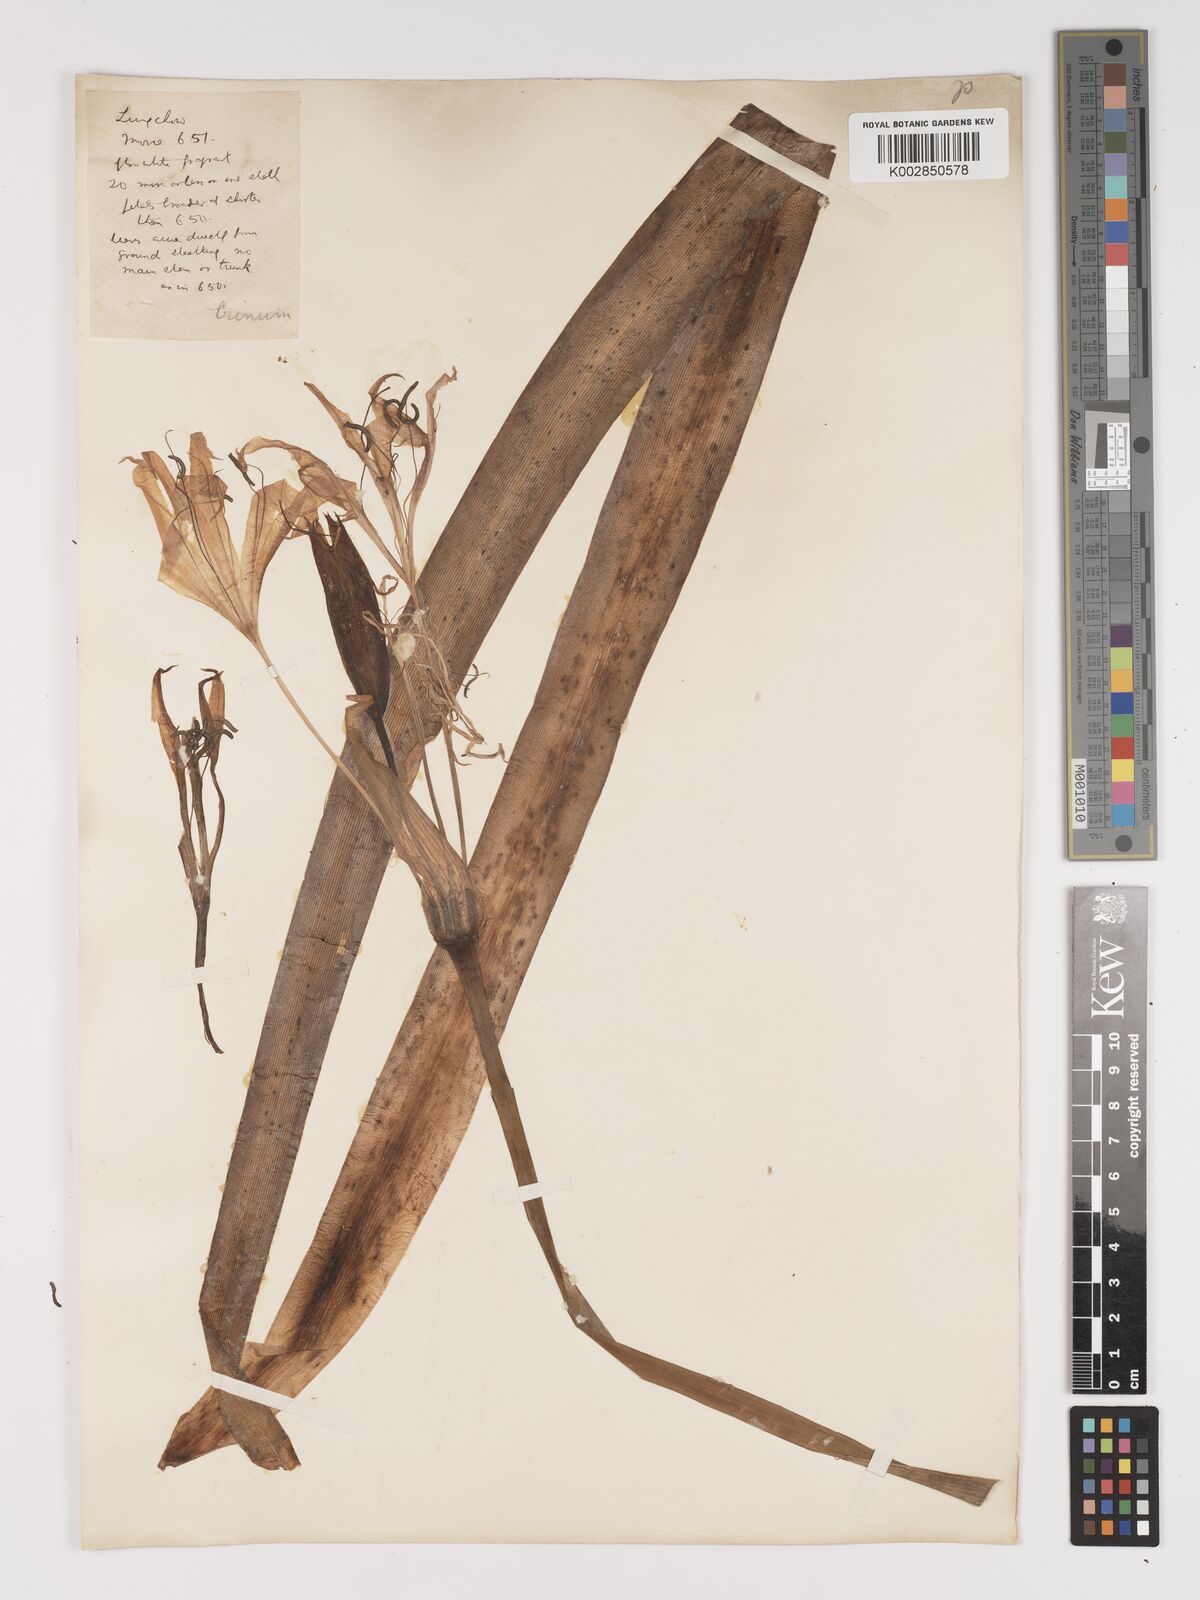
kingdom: Plantae
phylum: Tracheophyta
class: Liliopsida
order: Asparagales
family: Amaryllidaceae
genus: Crinum
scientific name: Crinum
